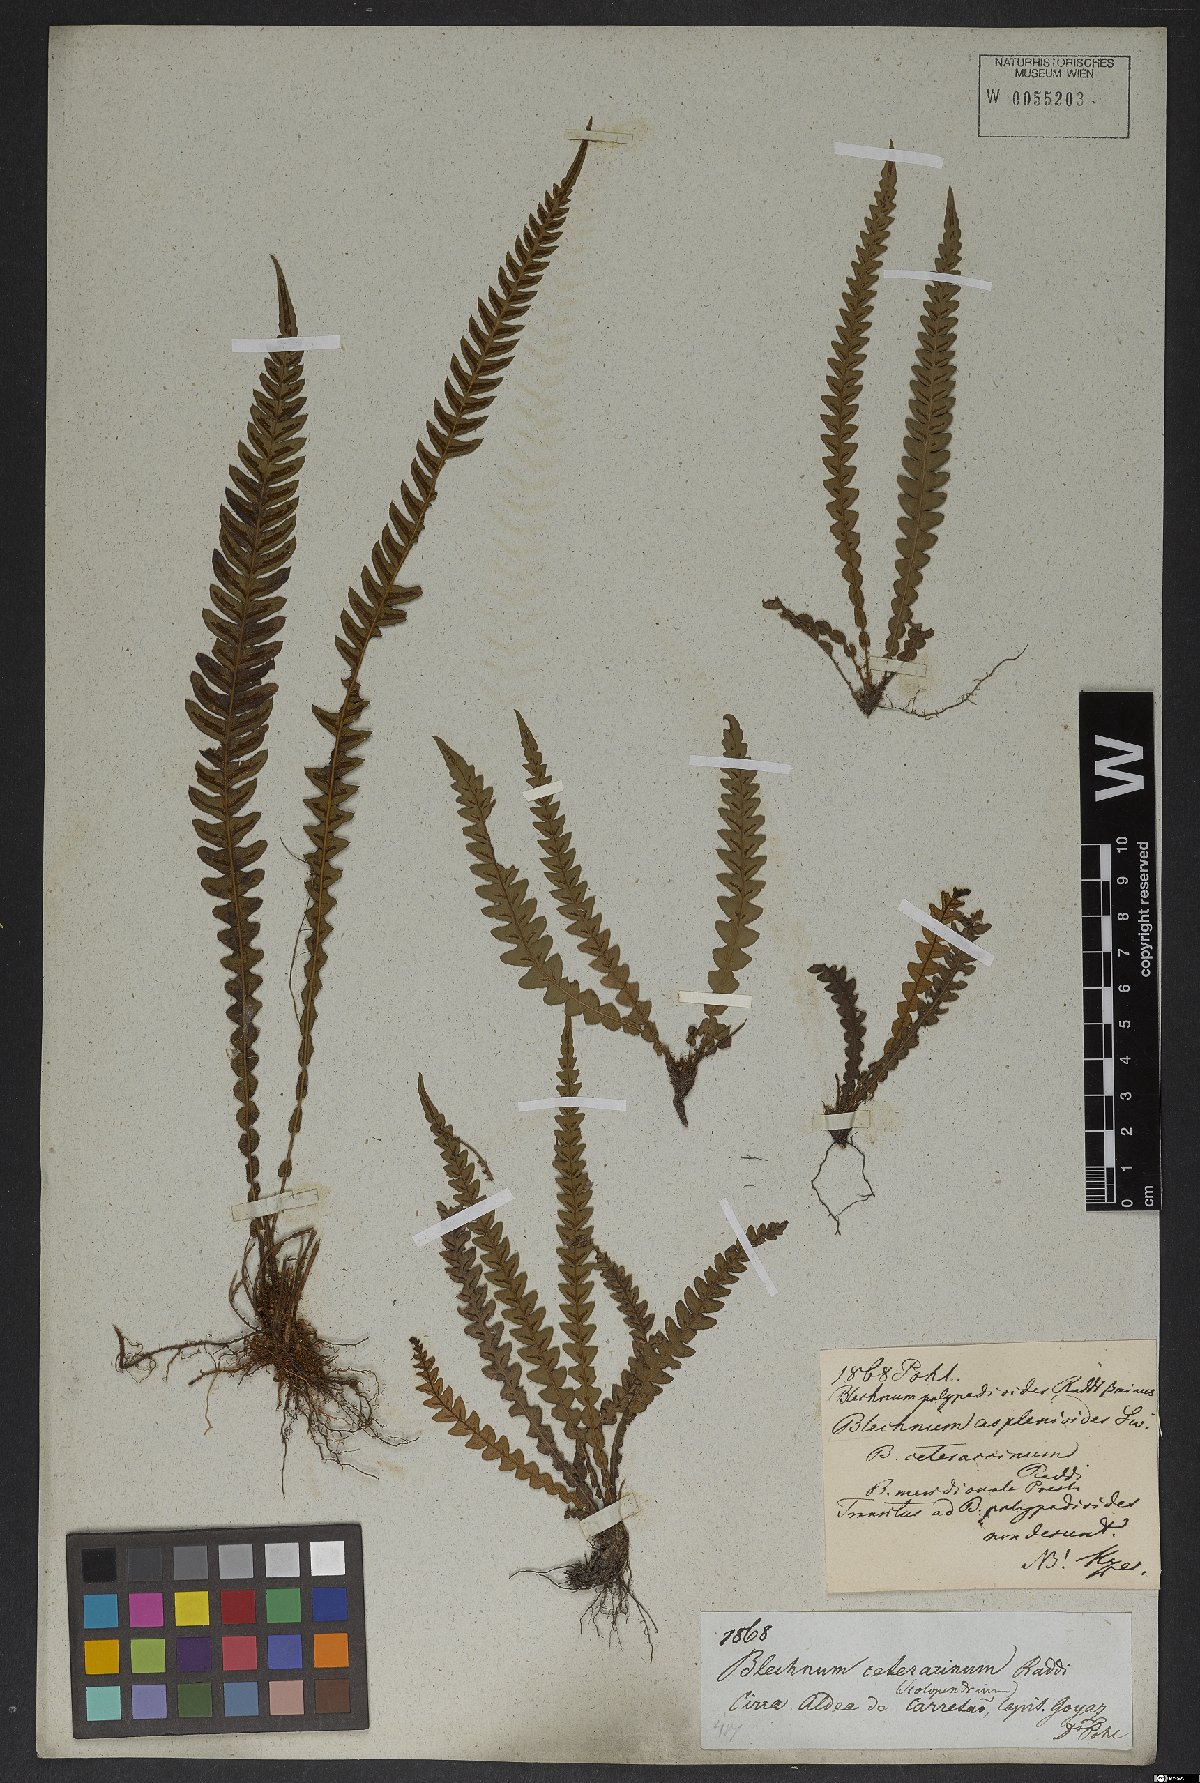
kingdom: Plantae
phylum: Tracheophyta
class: Polypodiopsida
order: Polypodiales
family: Blechnaceae
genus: Blechnum
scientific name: Blechnum asplenioides
